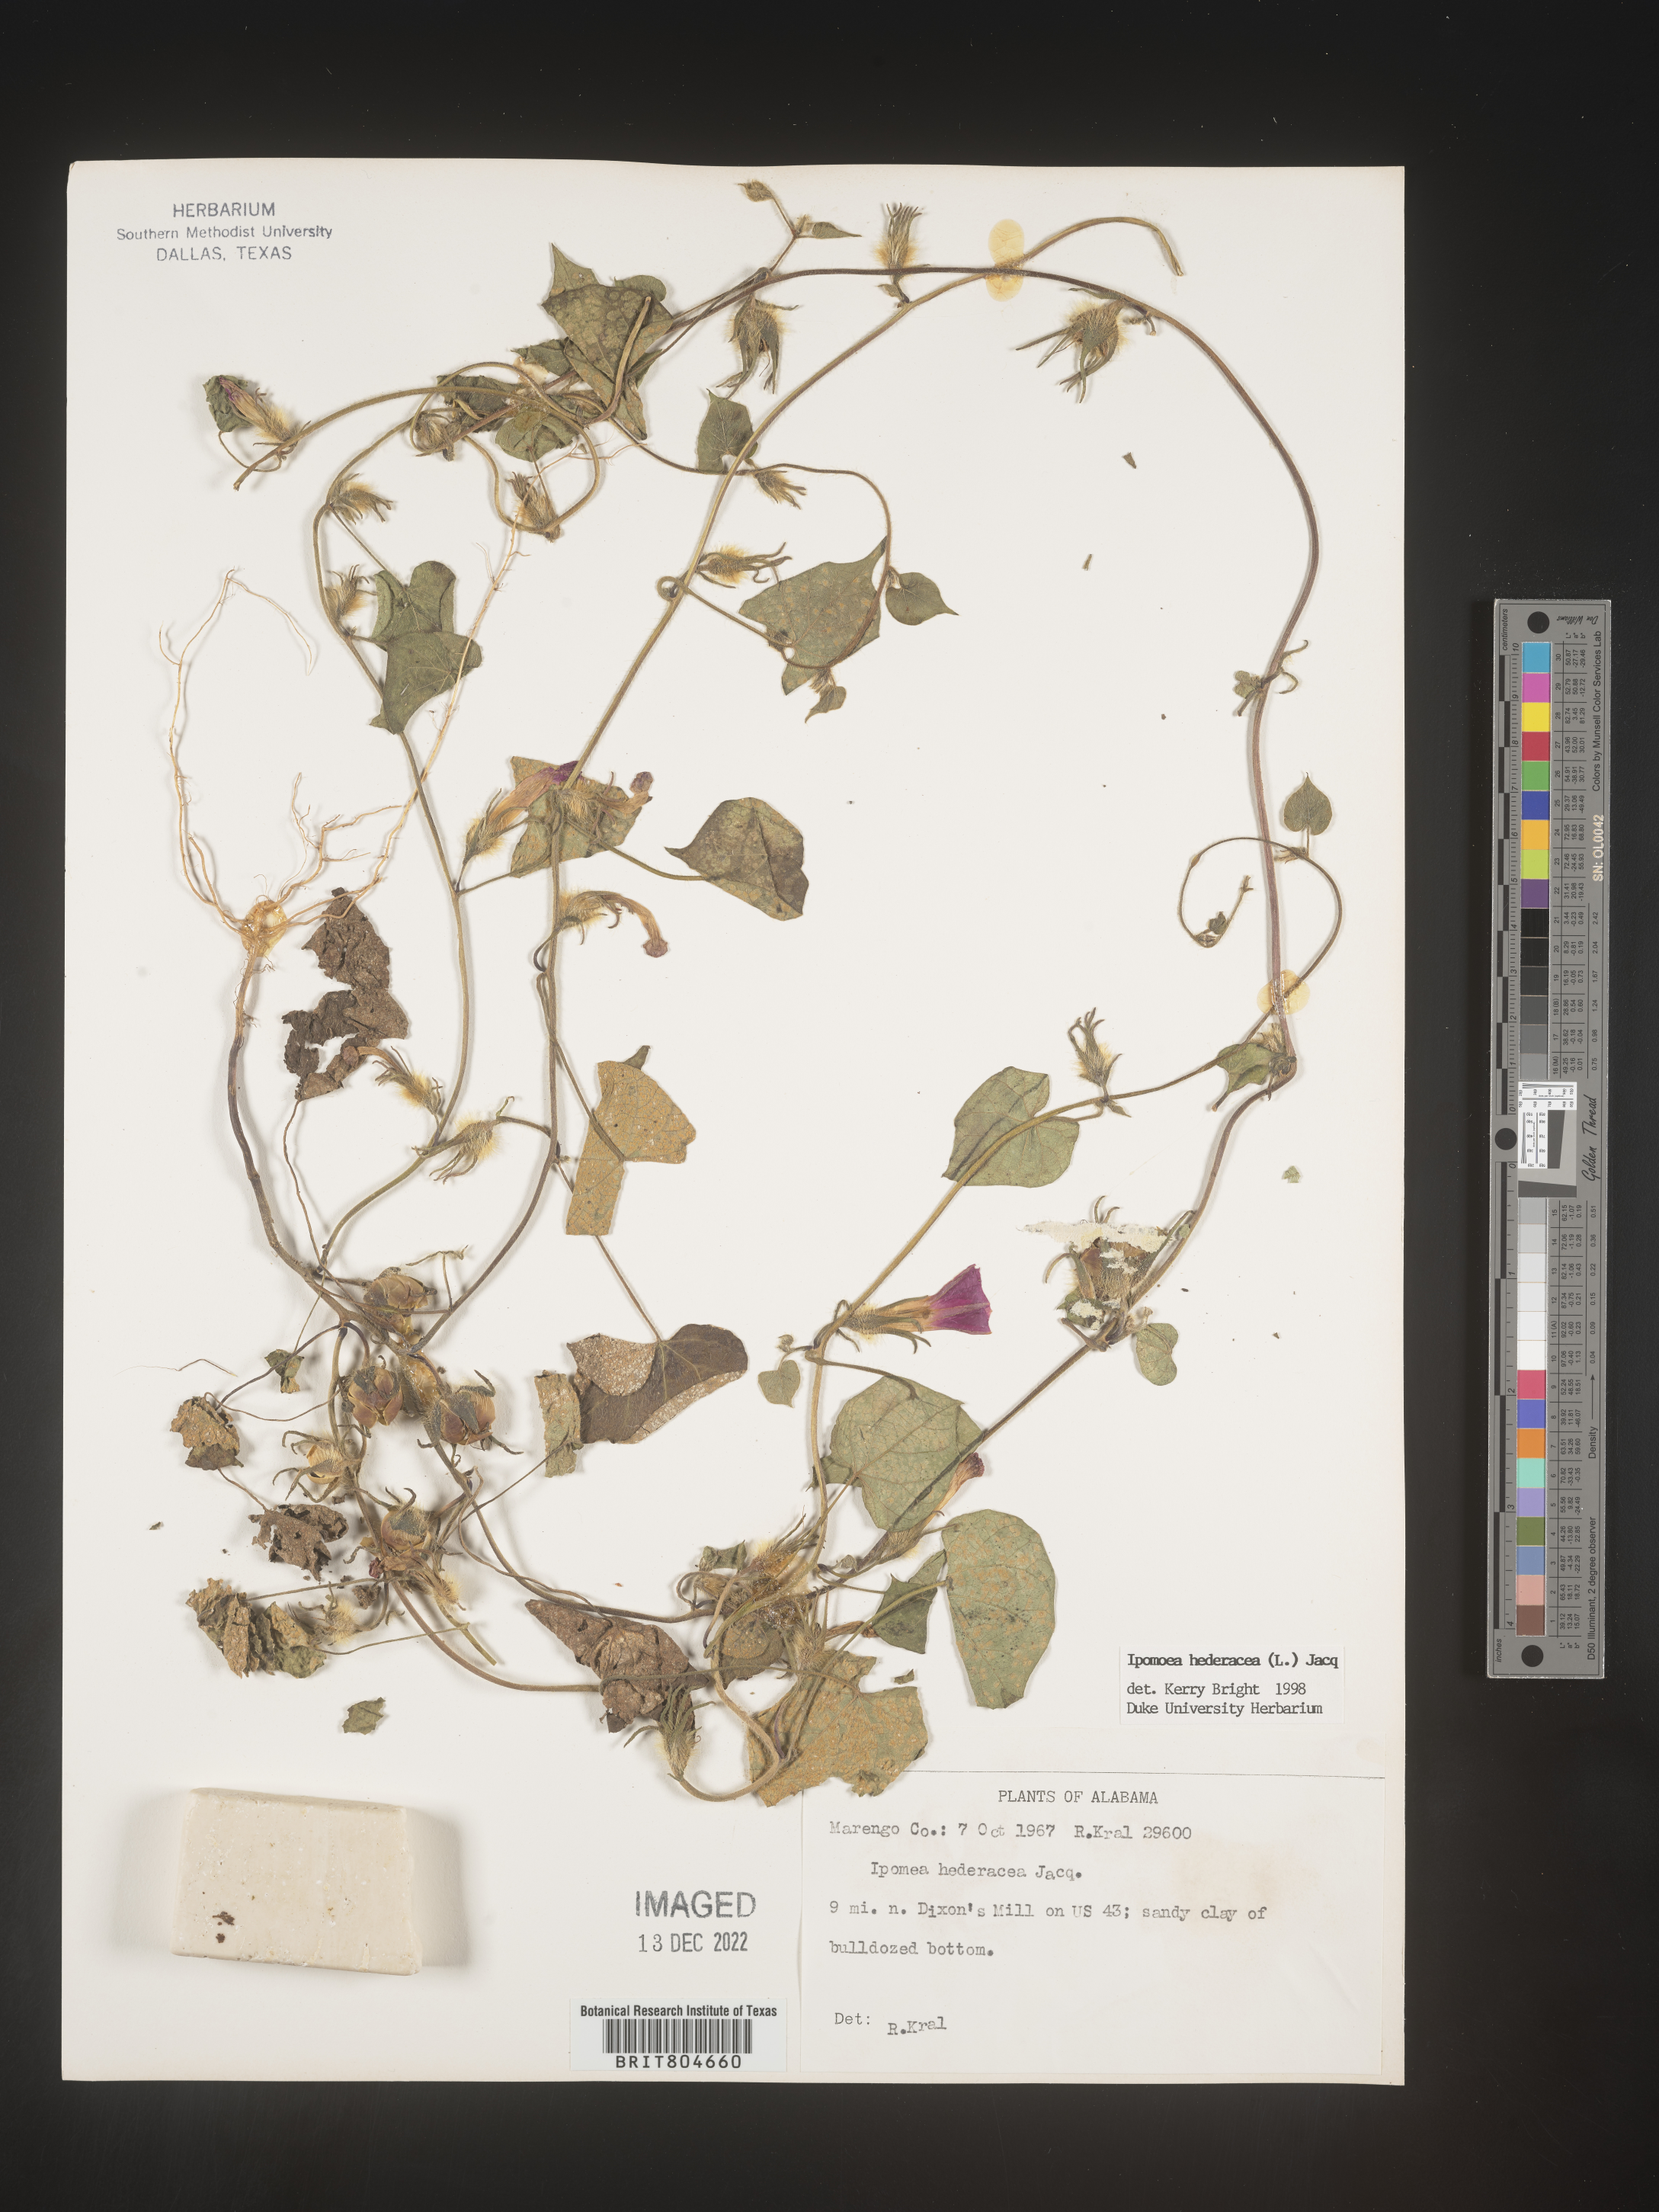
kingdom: Plantae
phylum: Tracheophyta
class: Magnoliopsida
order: Solanales
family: Convolvulaceae
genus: Ipomoea
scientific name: Ipomoea hederacea
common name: Ivy-leaved morning-glory
